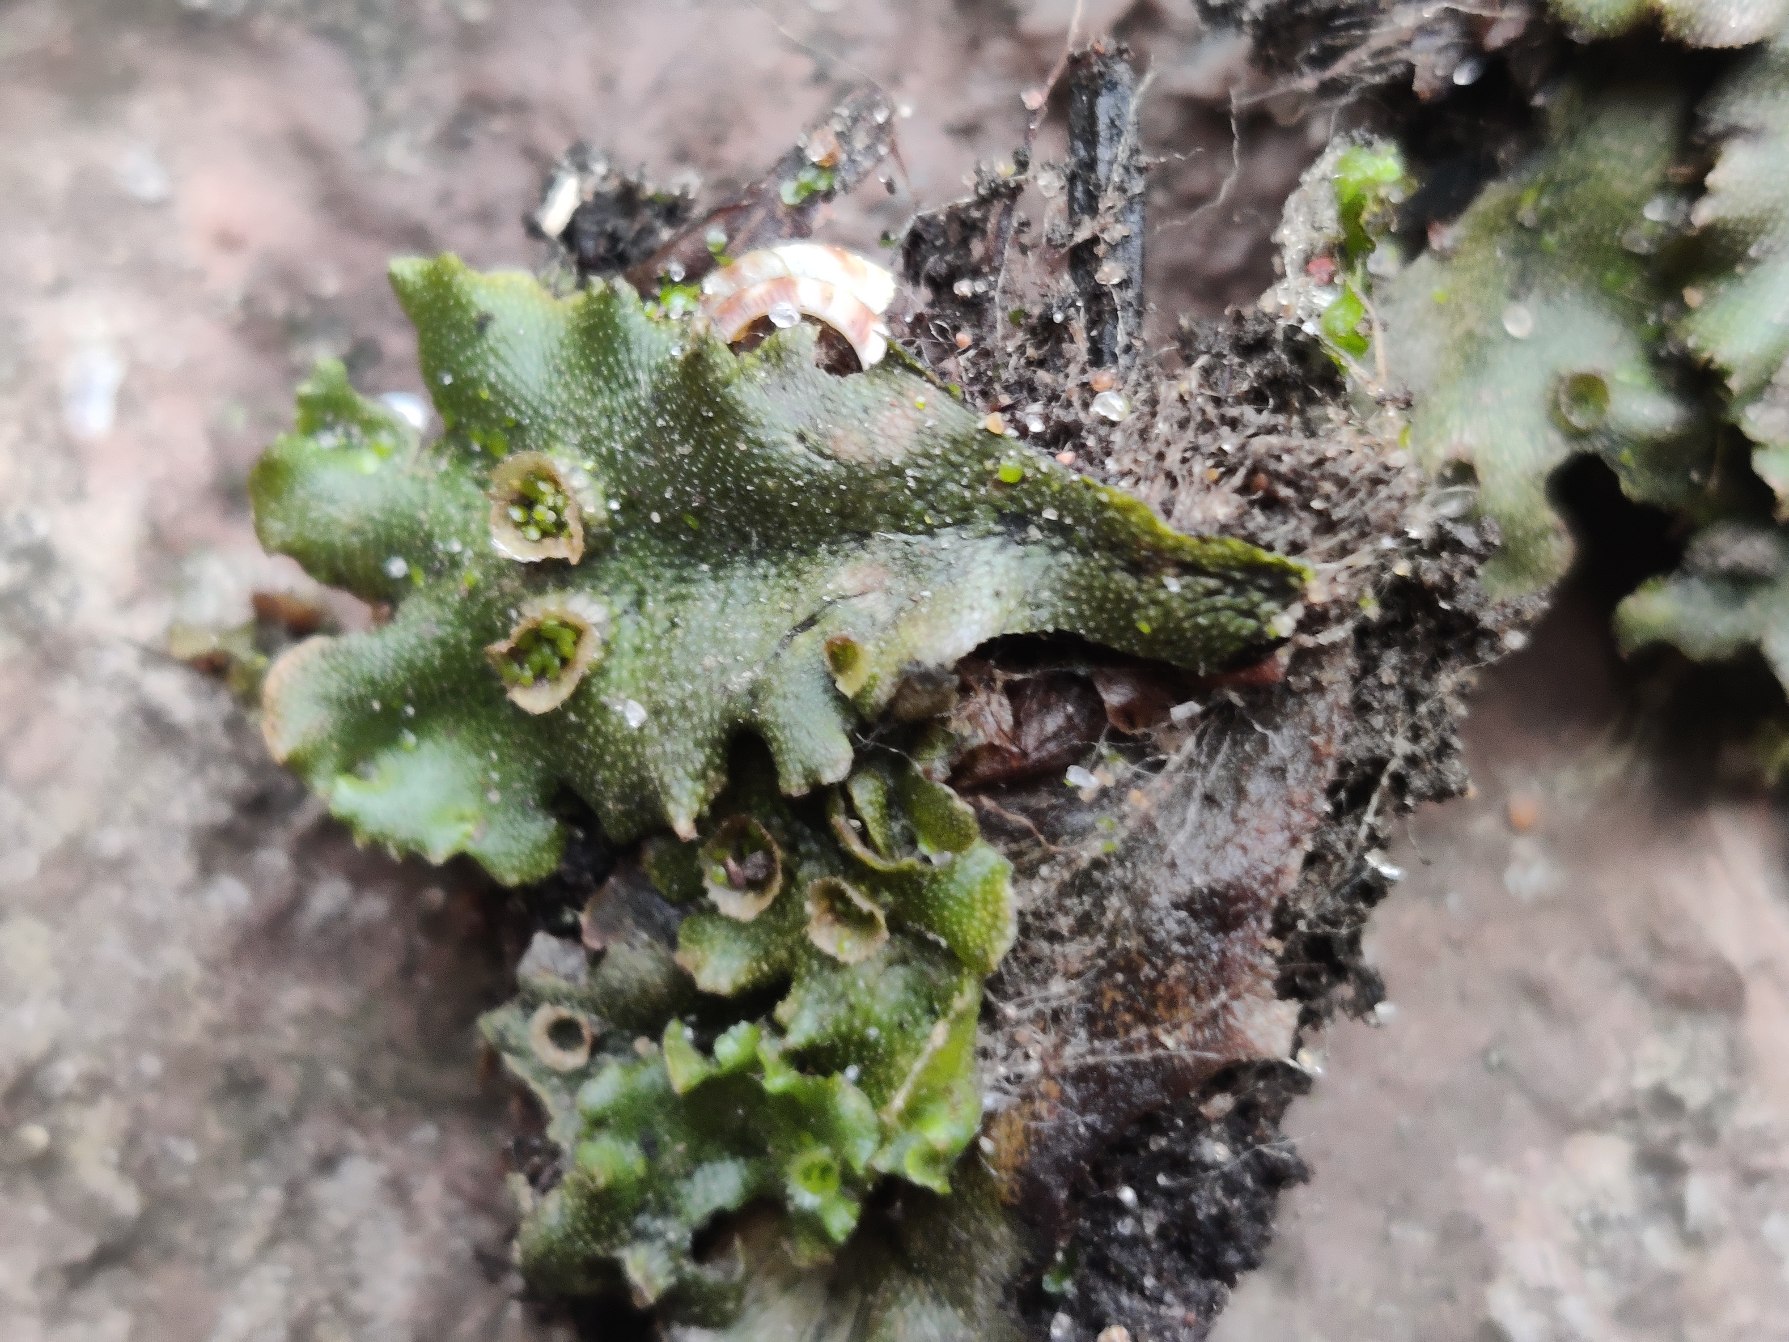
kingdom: Plantae
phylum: Marchantiophyta
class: Marchantiopsida
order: Marchantiales
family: Marchantiaceae
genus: Marchantia
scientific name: Marchantia polymorpha
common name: Almindelig lungemos (underart)
